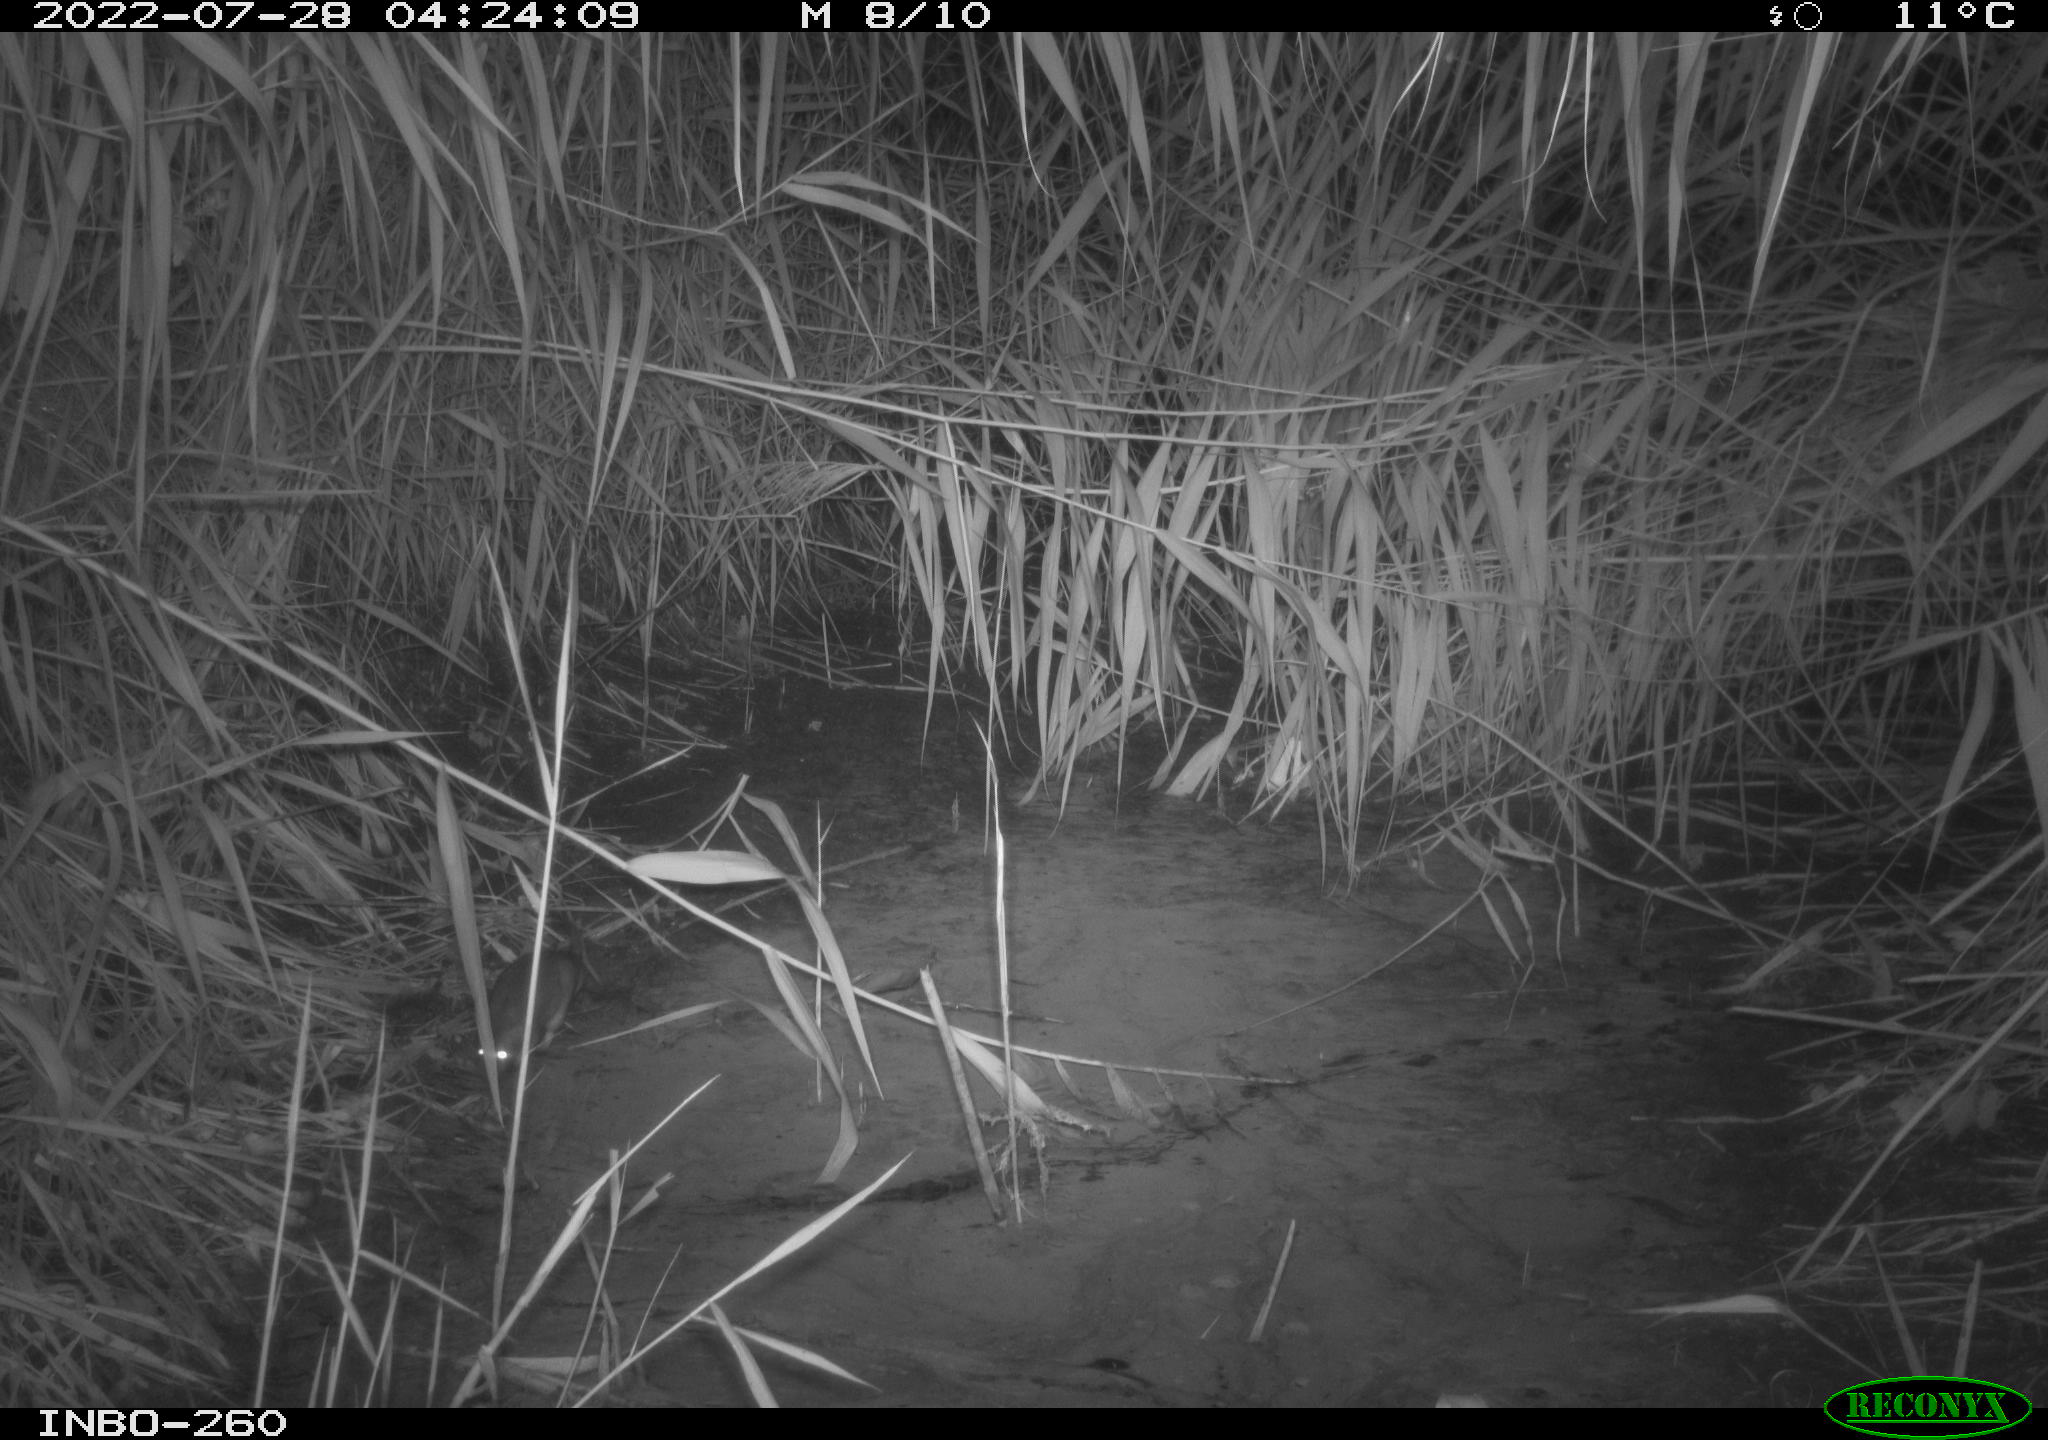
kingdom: Animalia
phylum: Chordata
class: Mammalia
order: Rodentia
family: Muridae
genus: Rattus
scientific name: Rattus norvegicus
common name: Brown rat
